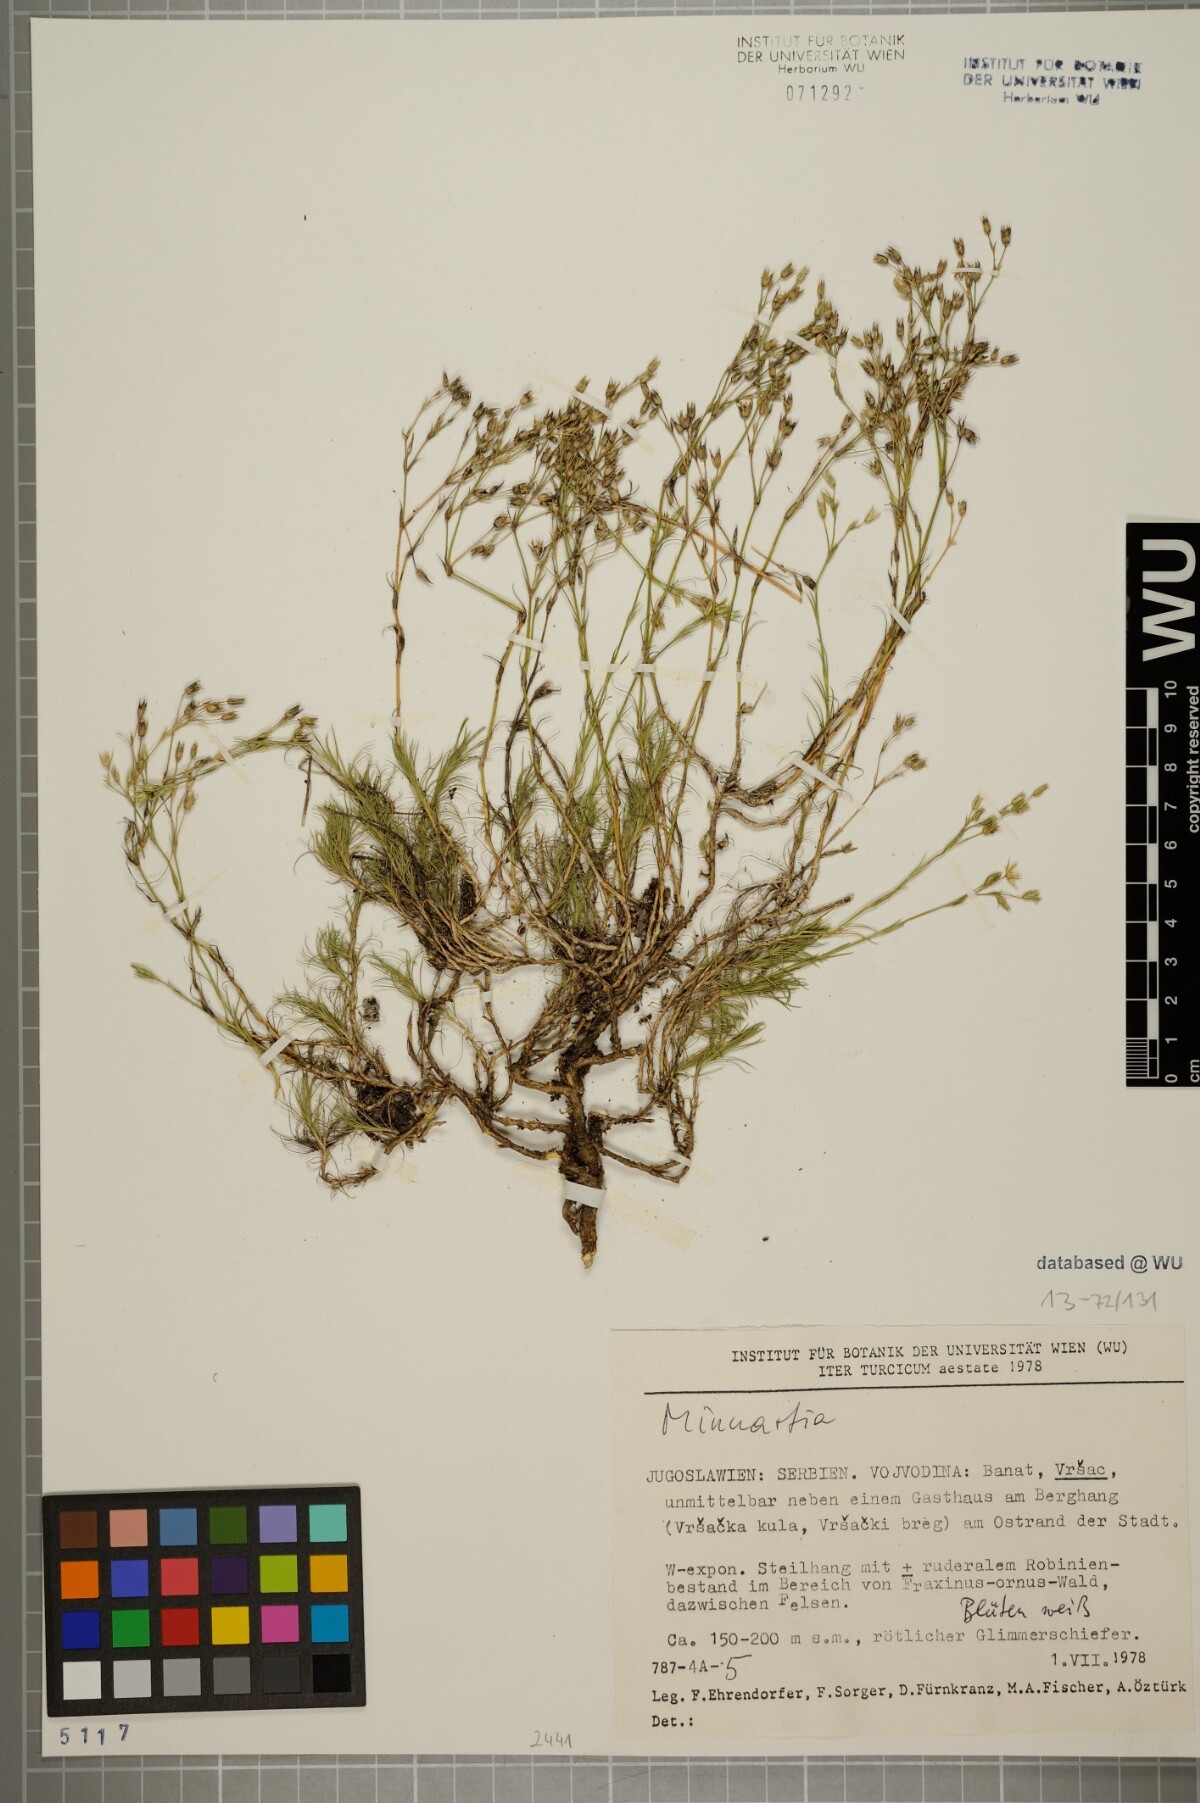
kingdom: Plantae
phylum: Tracheophyta
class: Magnoliopsida
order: Caryophyllales
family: Caryophyllaceae
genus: Minuartia
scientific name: Minuartia hirsuta
